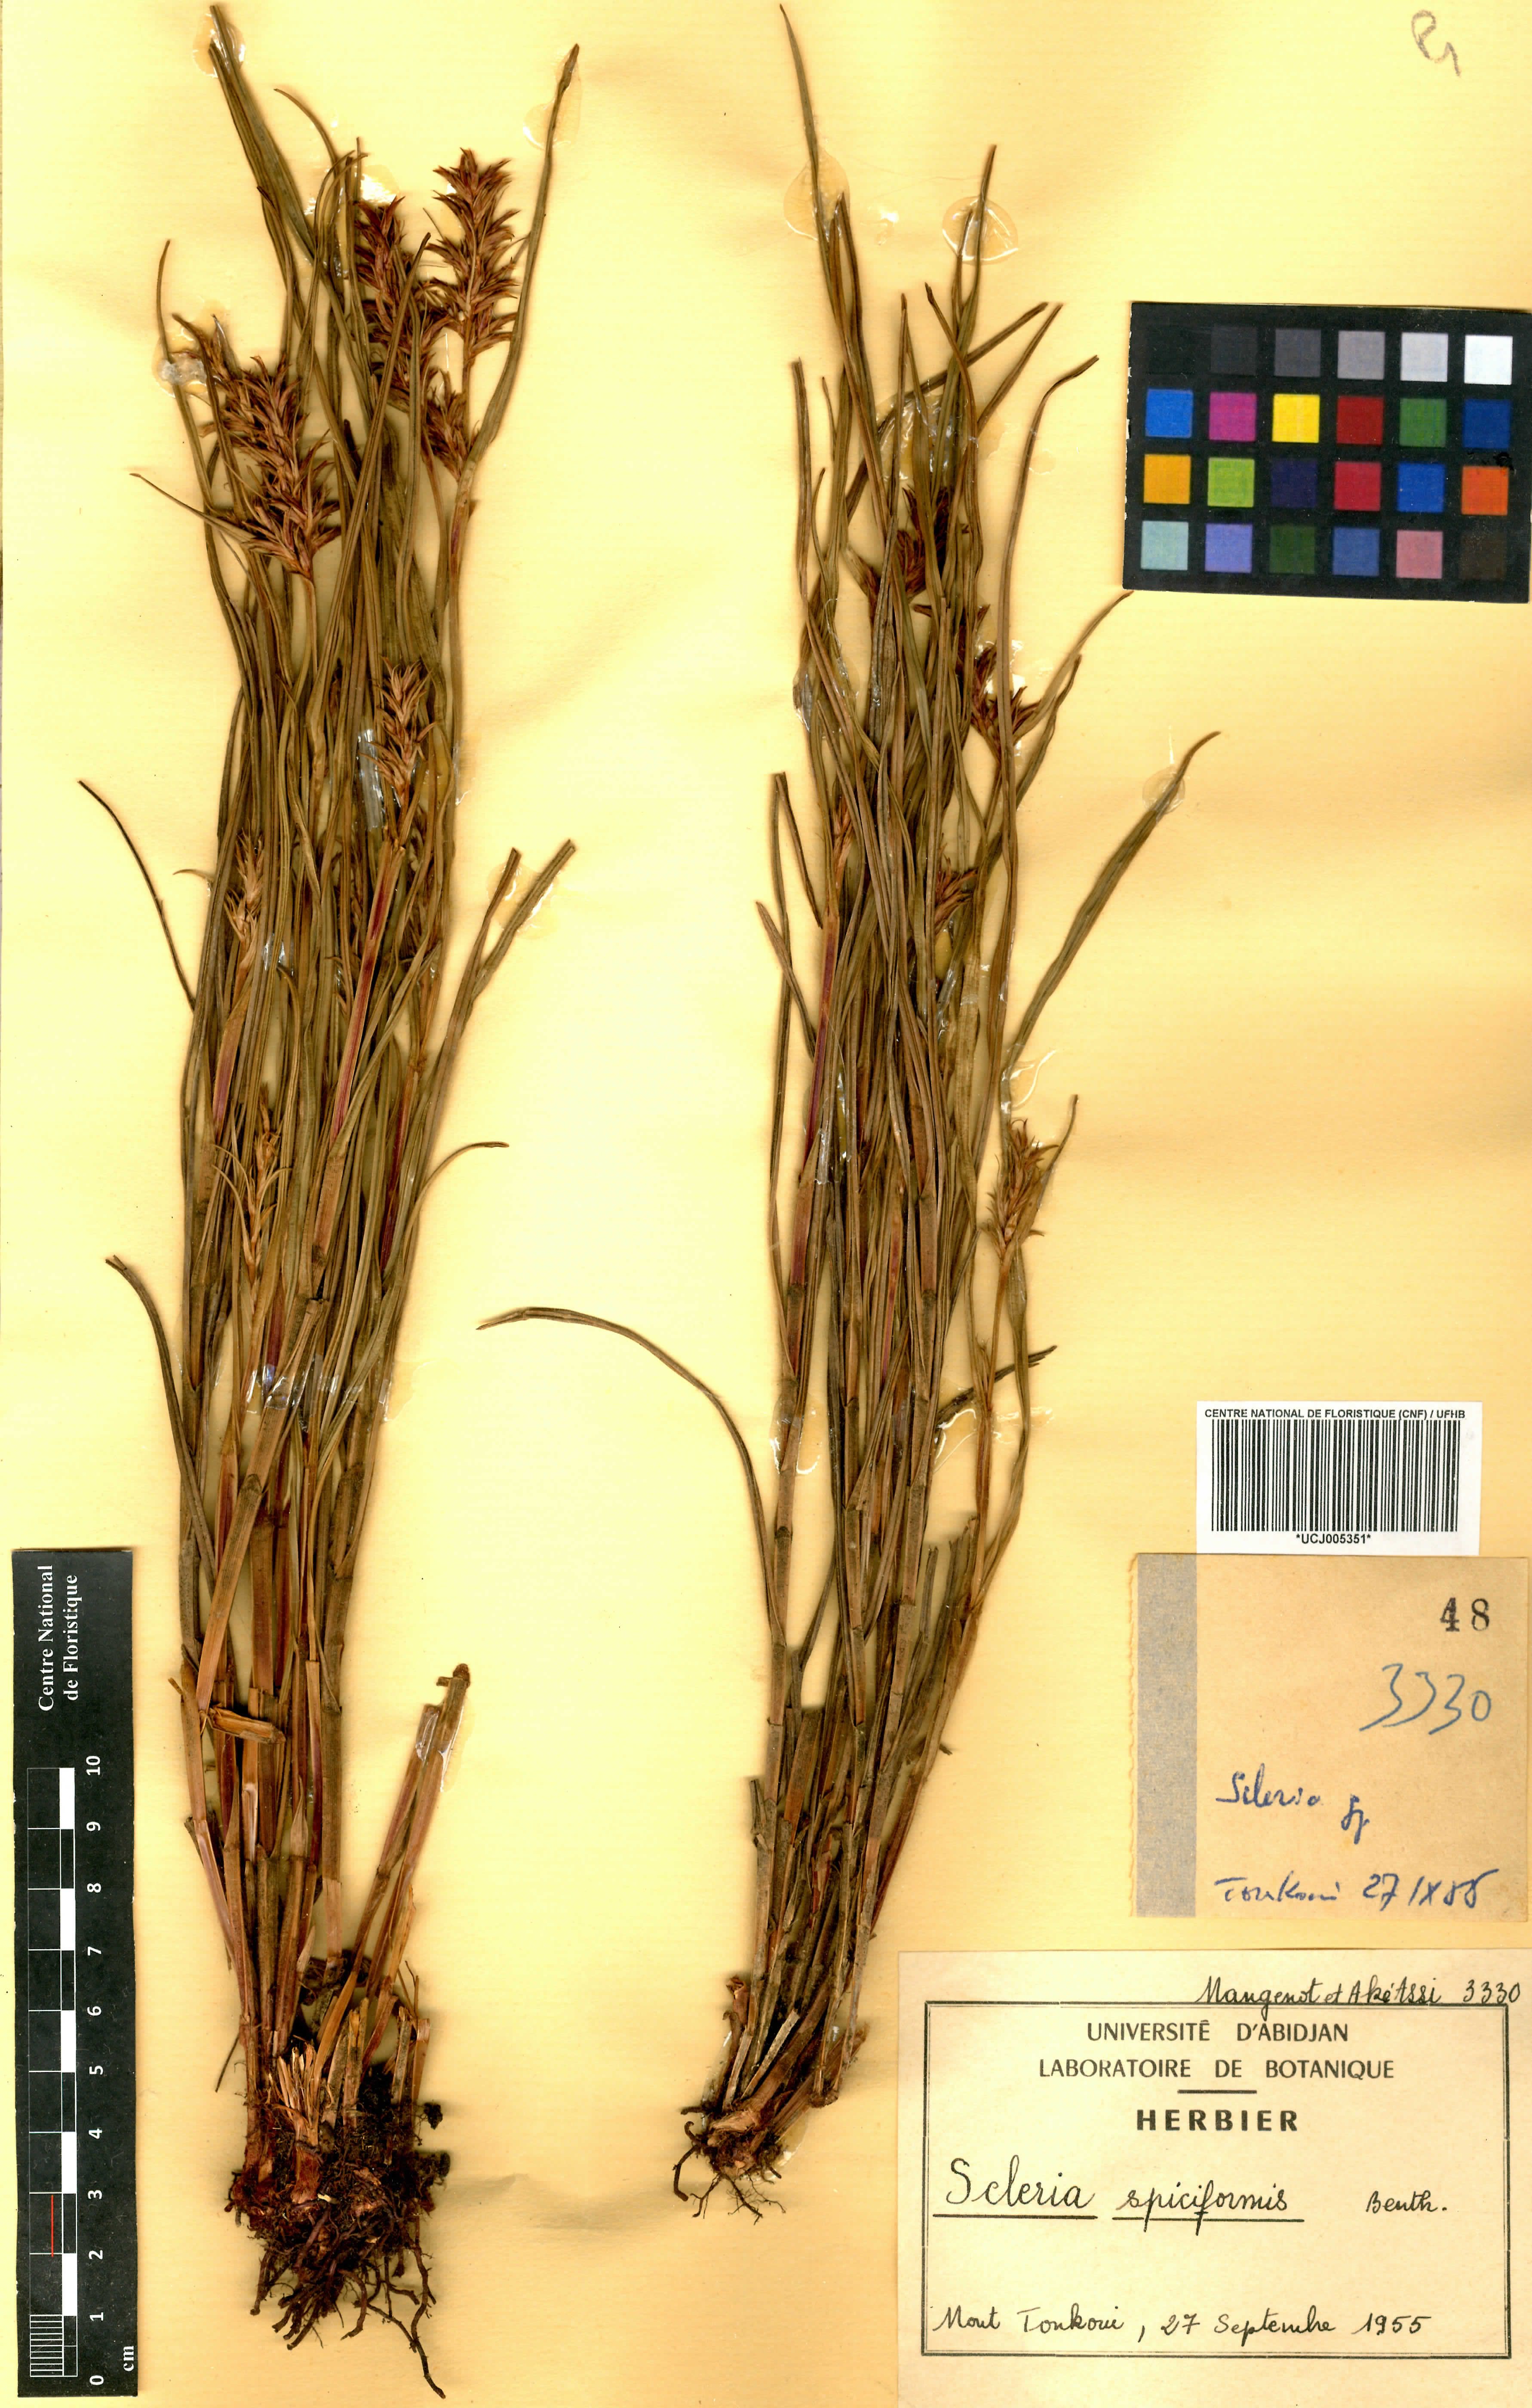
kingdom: Plantae
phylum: Tracheophyta
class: Liliopsida
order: Poales
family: Cyperaceae
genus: Scleria
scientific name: Scleria spiciformis
